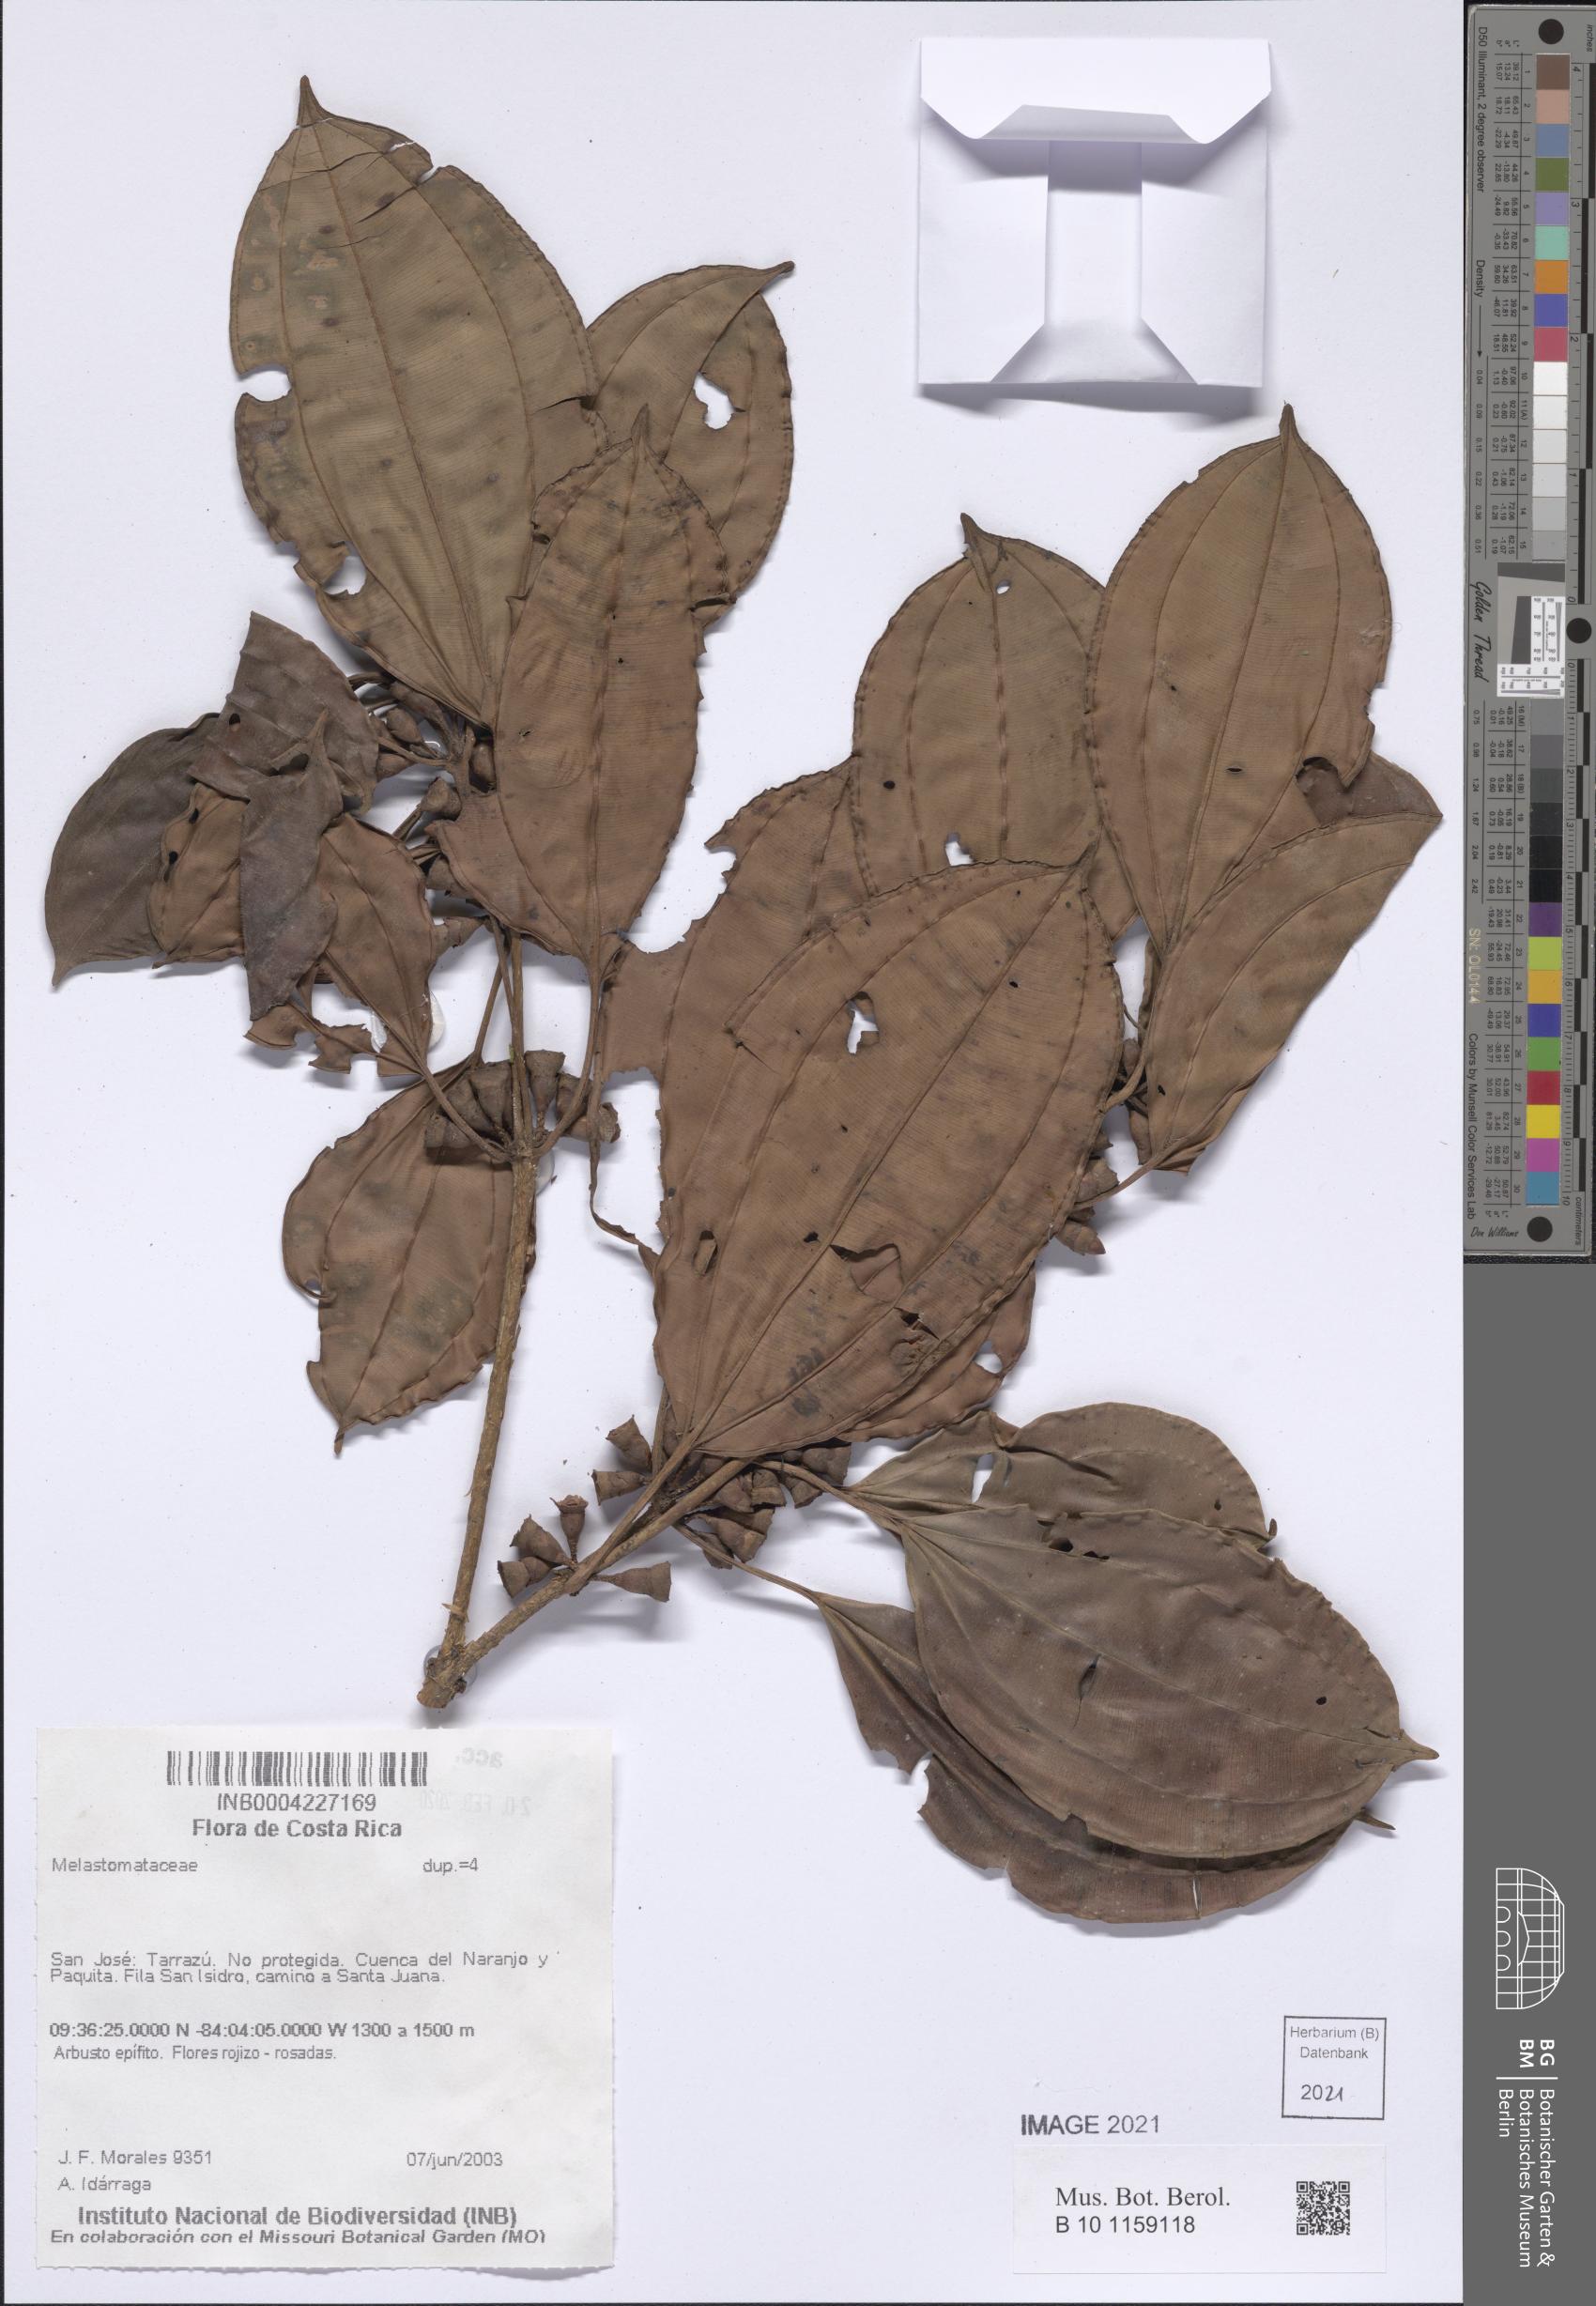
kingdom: Plantae
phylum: Tracheophyta
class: Magnoliopsida
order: Myrtales
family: Melastomataceae
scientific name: Melastomataceae
